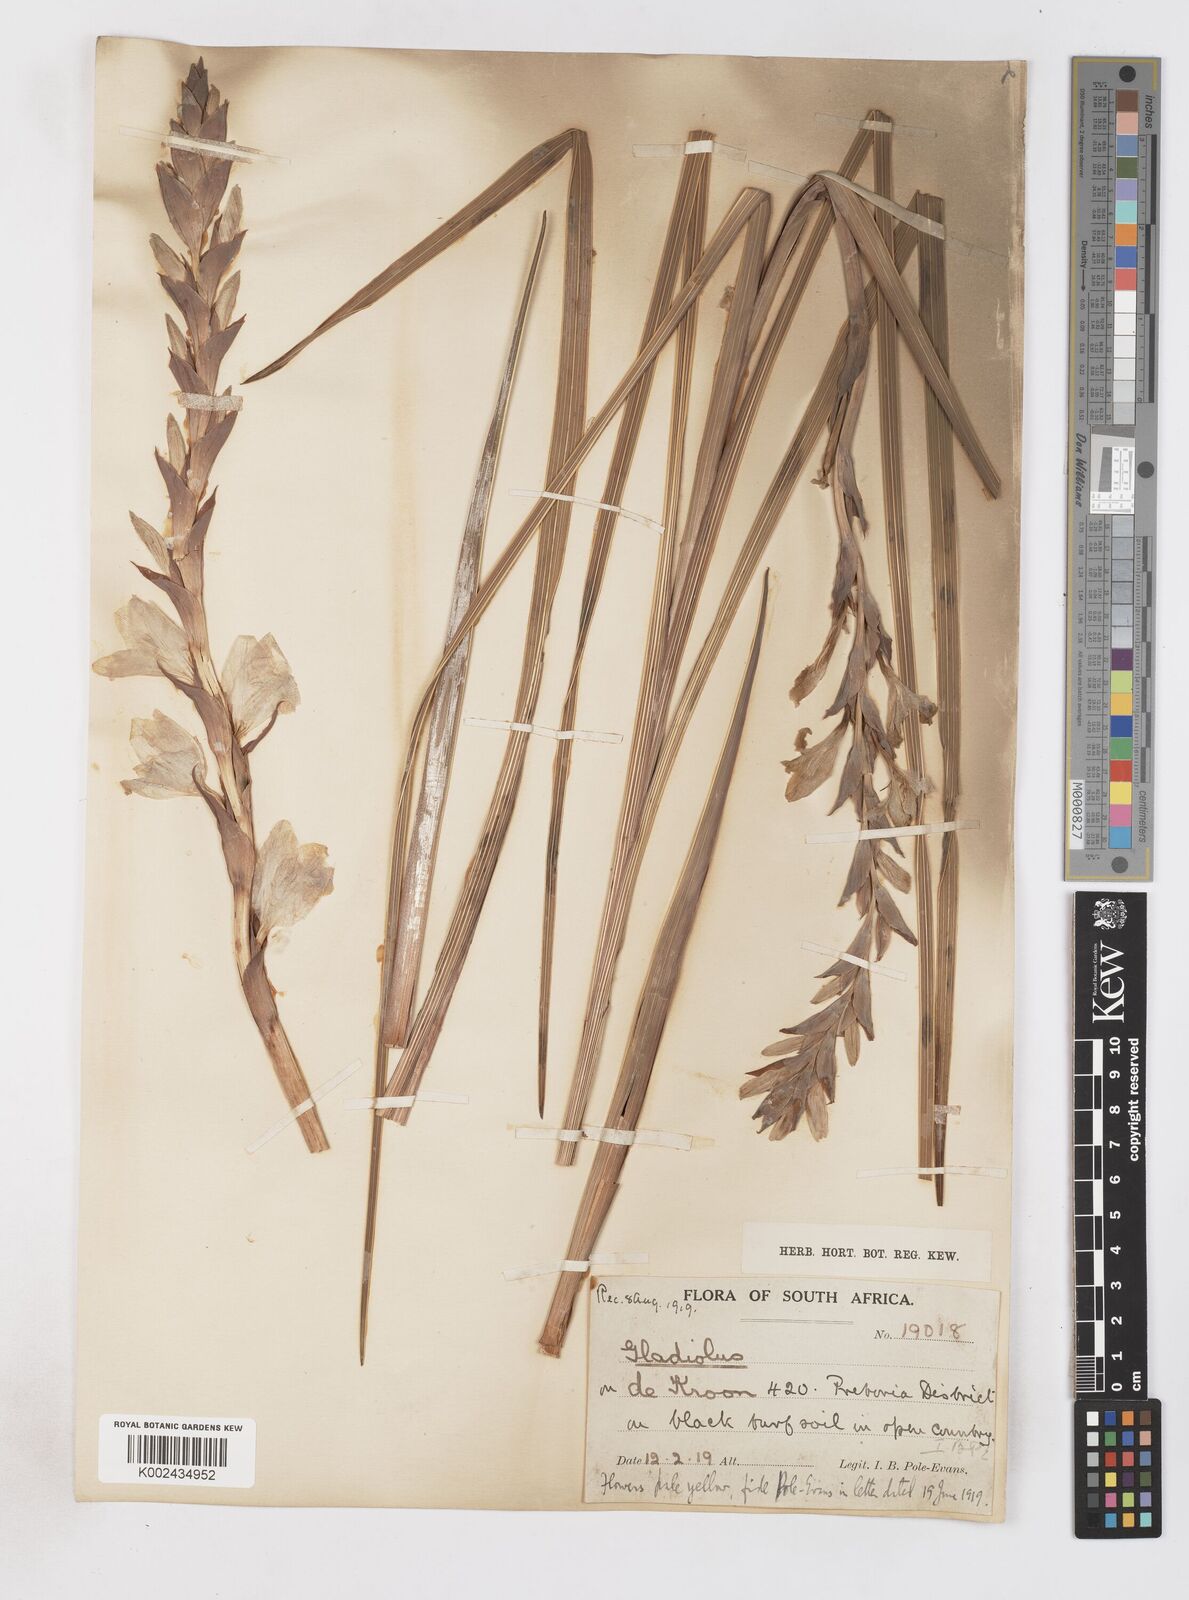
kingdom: Plantae
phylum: Tracheophyta
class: Liliopsida
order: Asparagales
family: Iridaceae
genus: Gladiolus
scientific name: Gladiolus sericeovillosus
